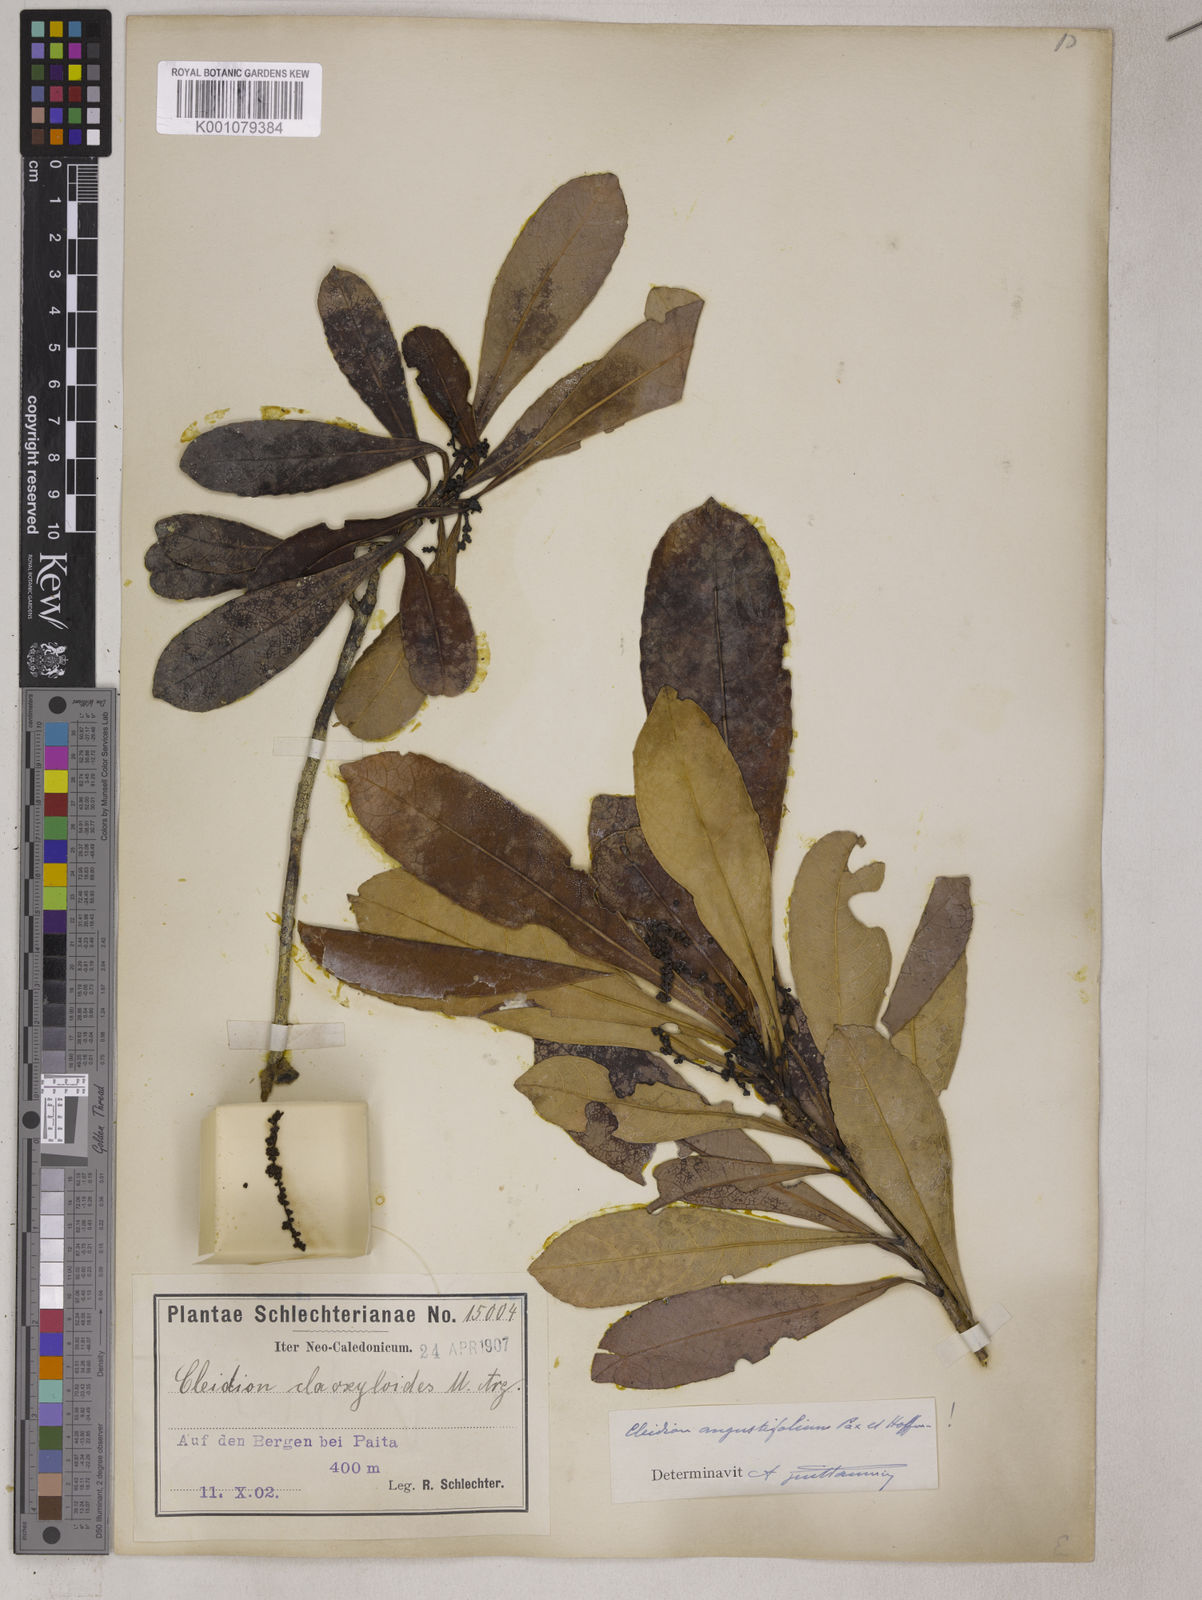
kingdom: Plantae
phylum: Tracheophyta
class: Magnoliopsida
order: Malpighiales
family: Euphorbiaceae
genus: Cleidion
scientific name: Cleidion vieillardii
